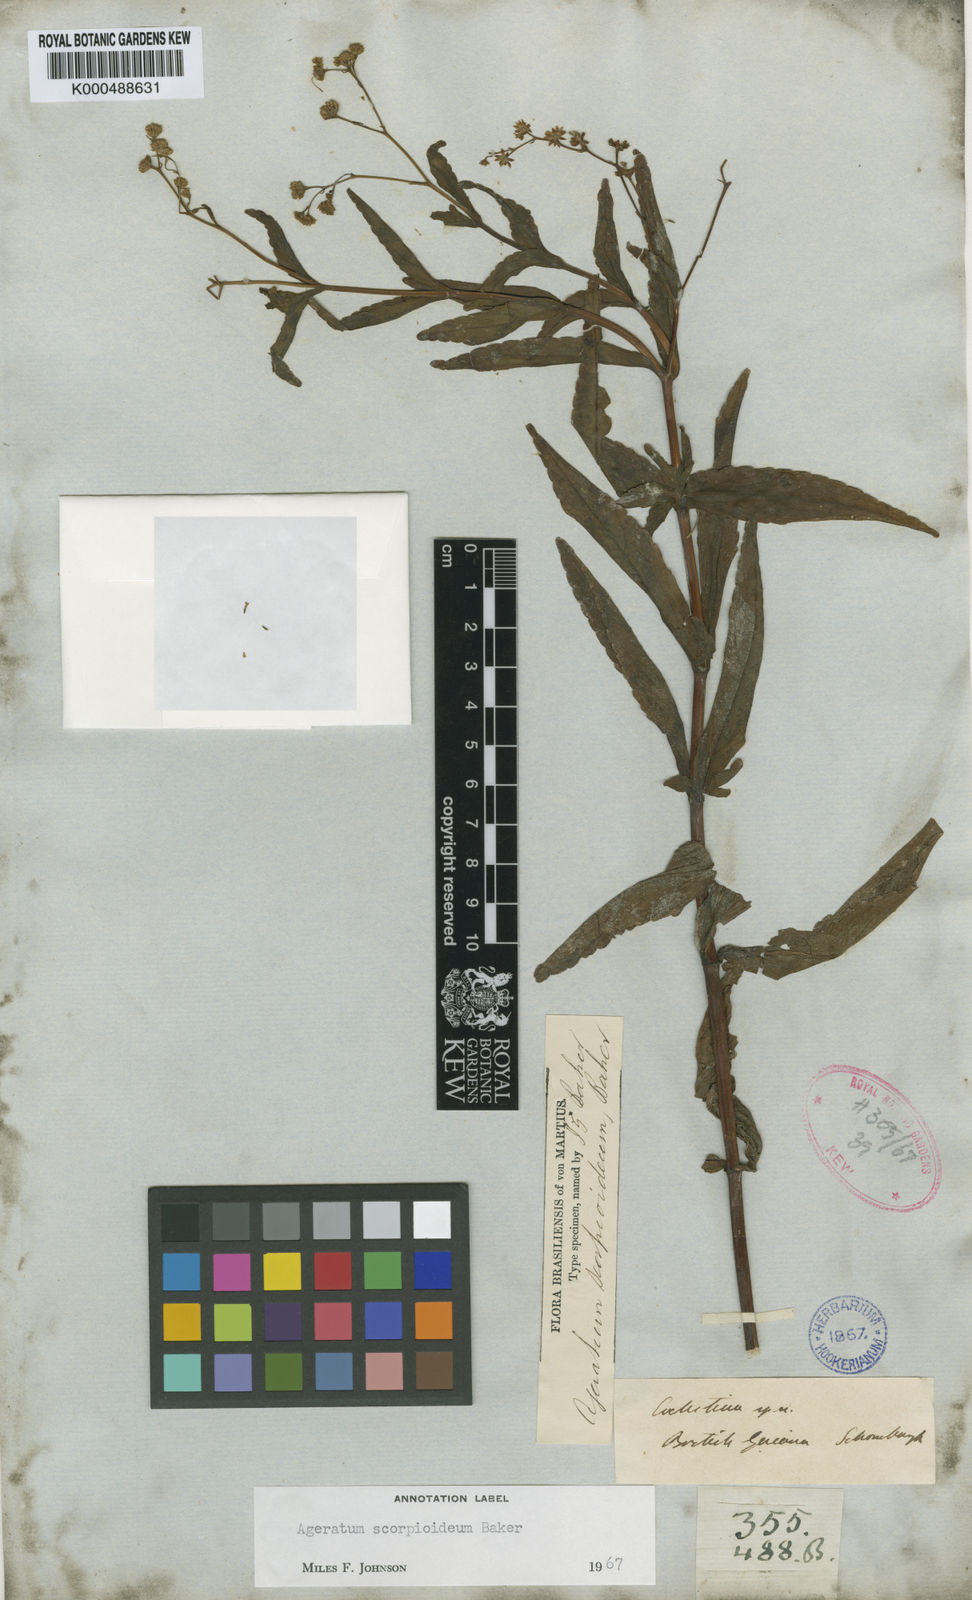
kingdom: Plantae
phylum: Tracheophyta
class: Magnoliopsida
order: Asterales
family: Asteraceae
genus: Ageratum
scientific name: Ageratum scorpioideum
